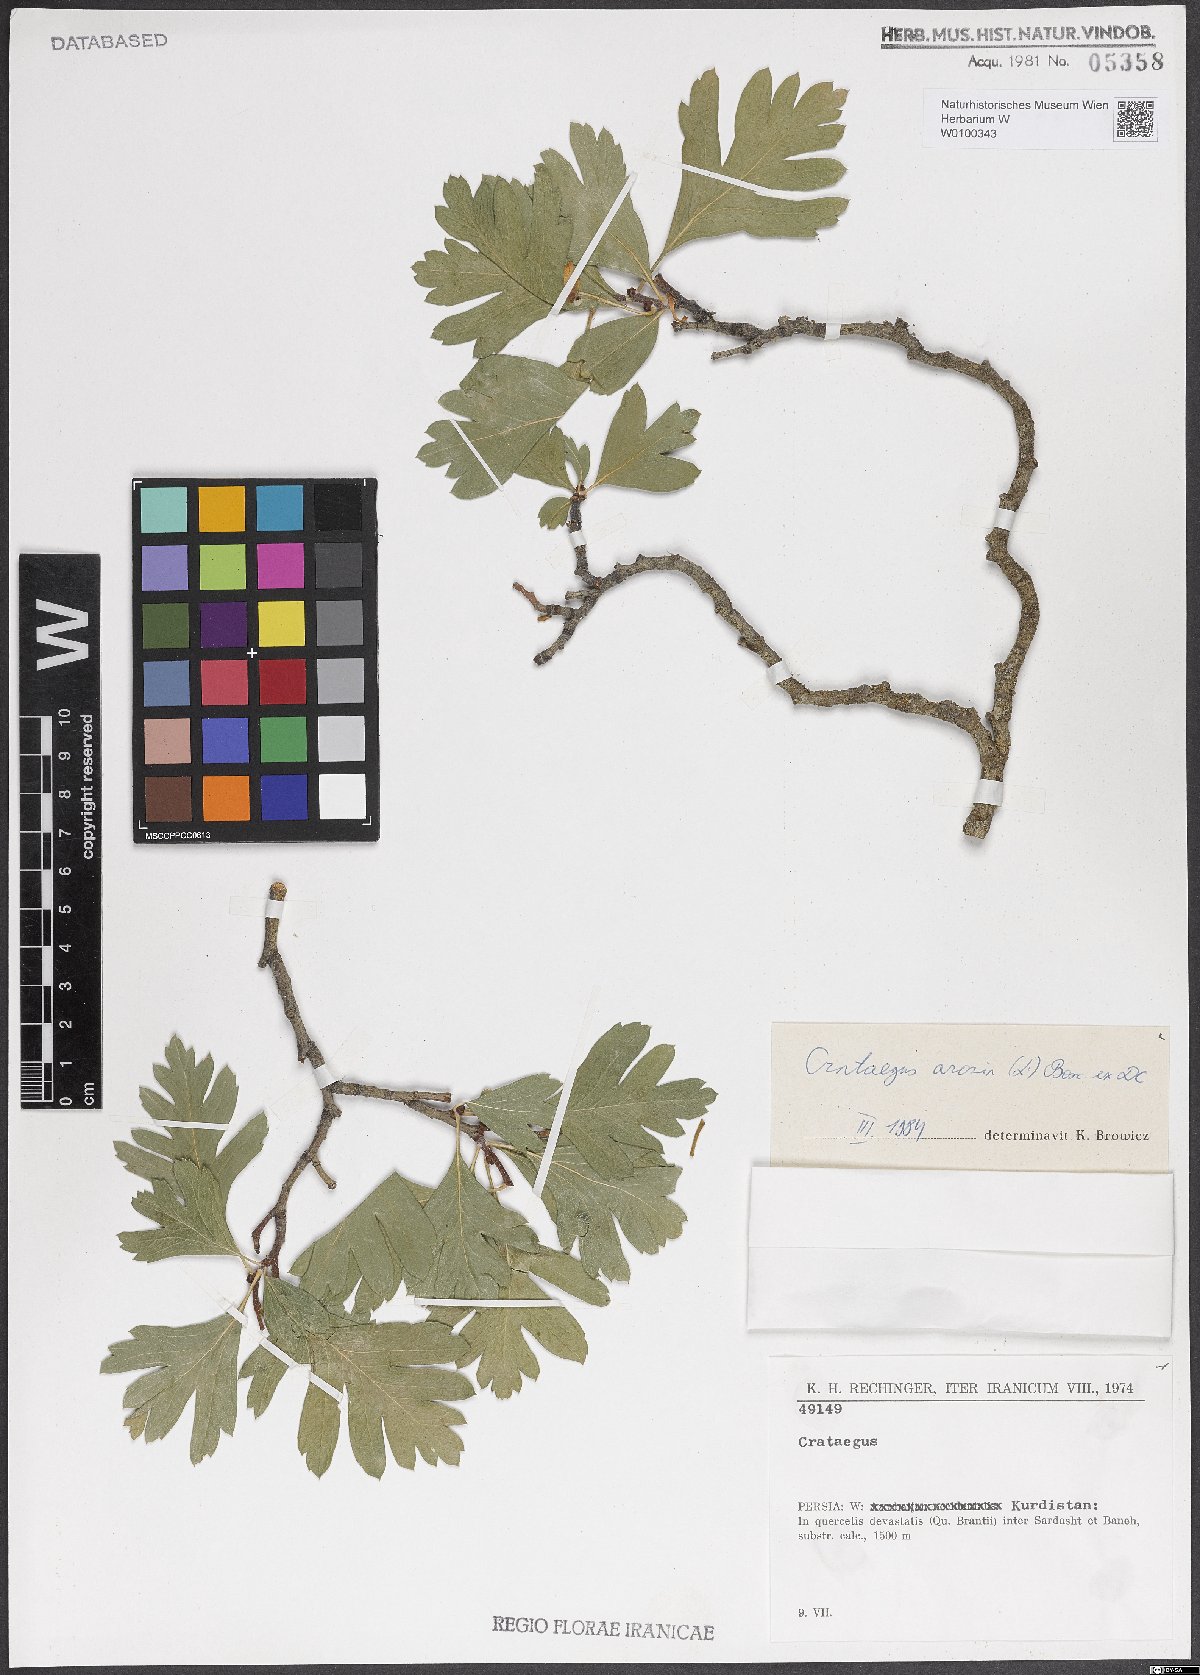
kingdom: Plantae
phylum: Tracheophyta
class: Magnoliopsida
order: Rosales
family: Rosaceae
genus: Crataegus
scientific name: Crataegus azarolus
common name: Azarole
